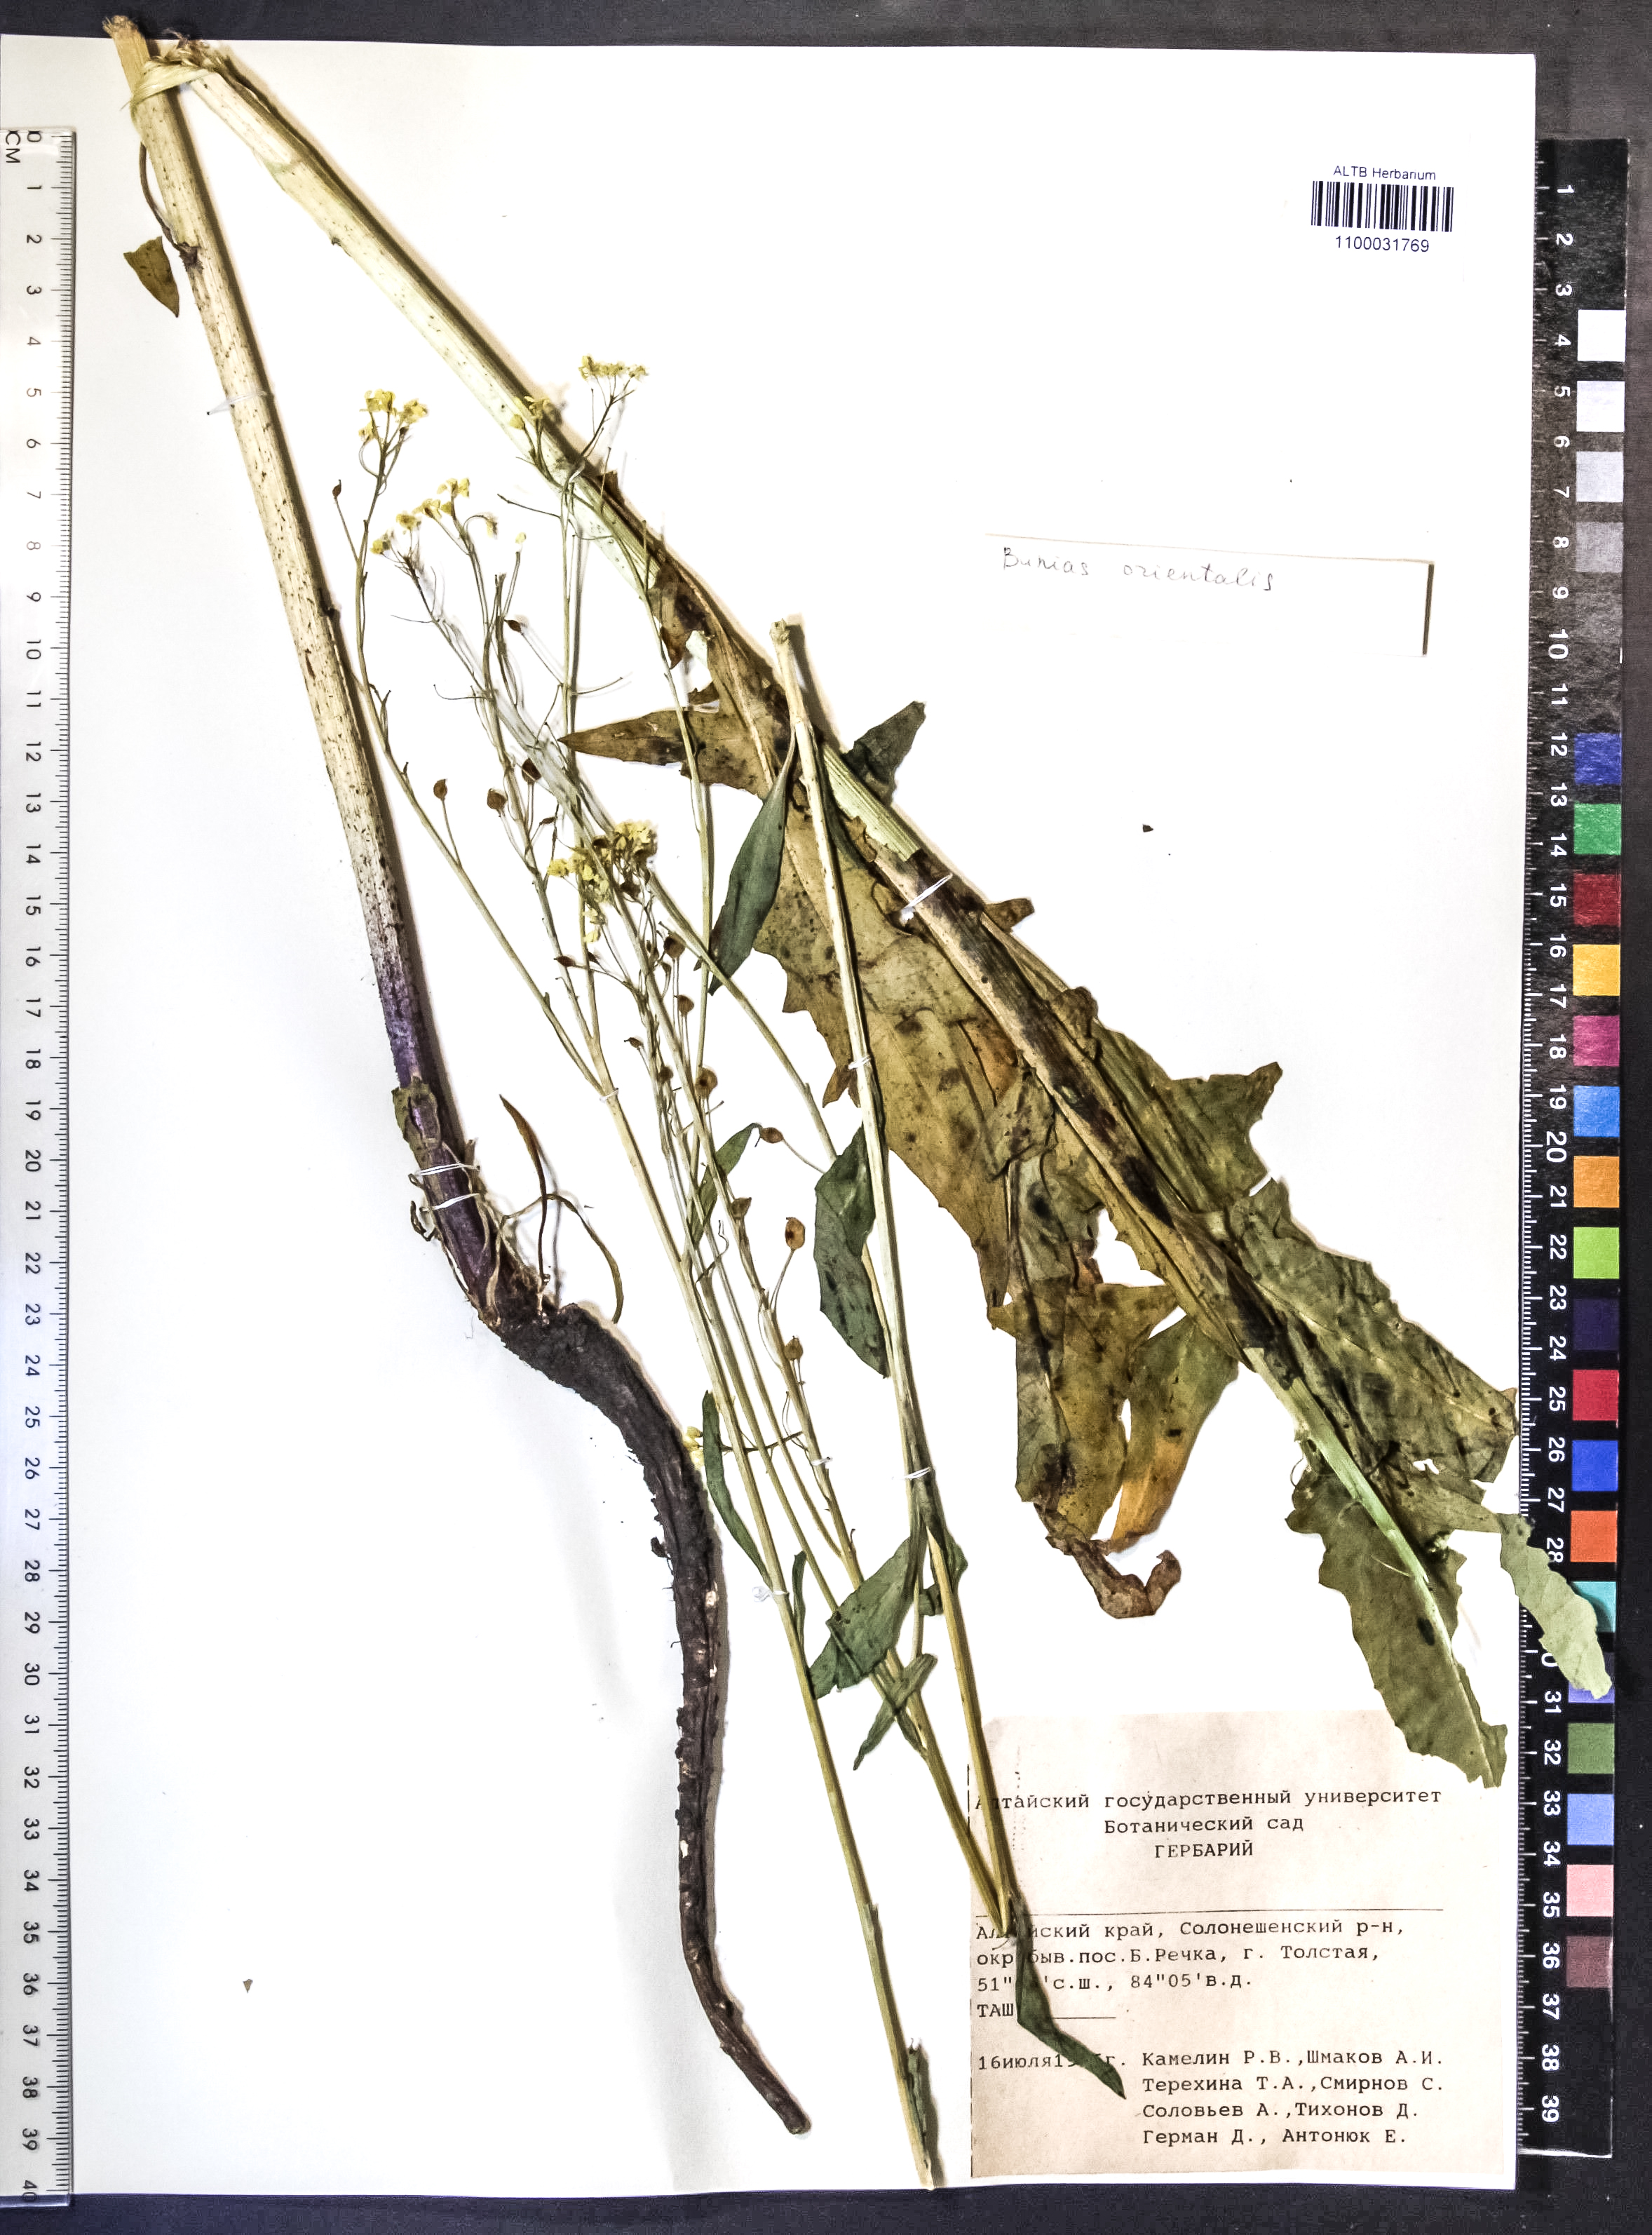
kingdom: Plantae
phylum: Tracheophyta
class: Magnoliopsida
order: Brassicales
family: Brassicaceae
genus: Bunias
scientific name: Bunias orientalis
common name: Warty-cabbage
